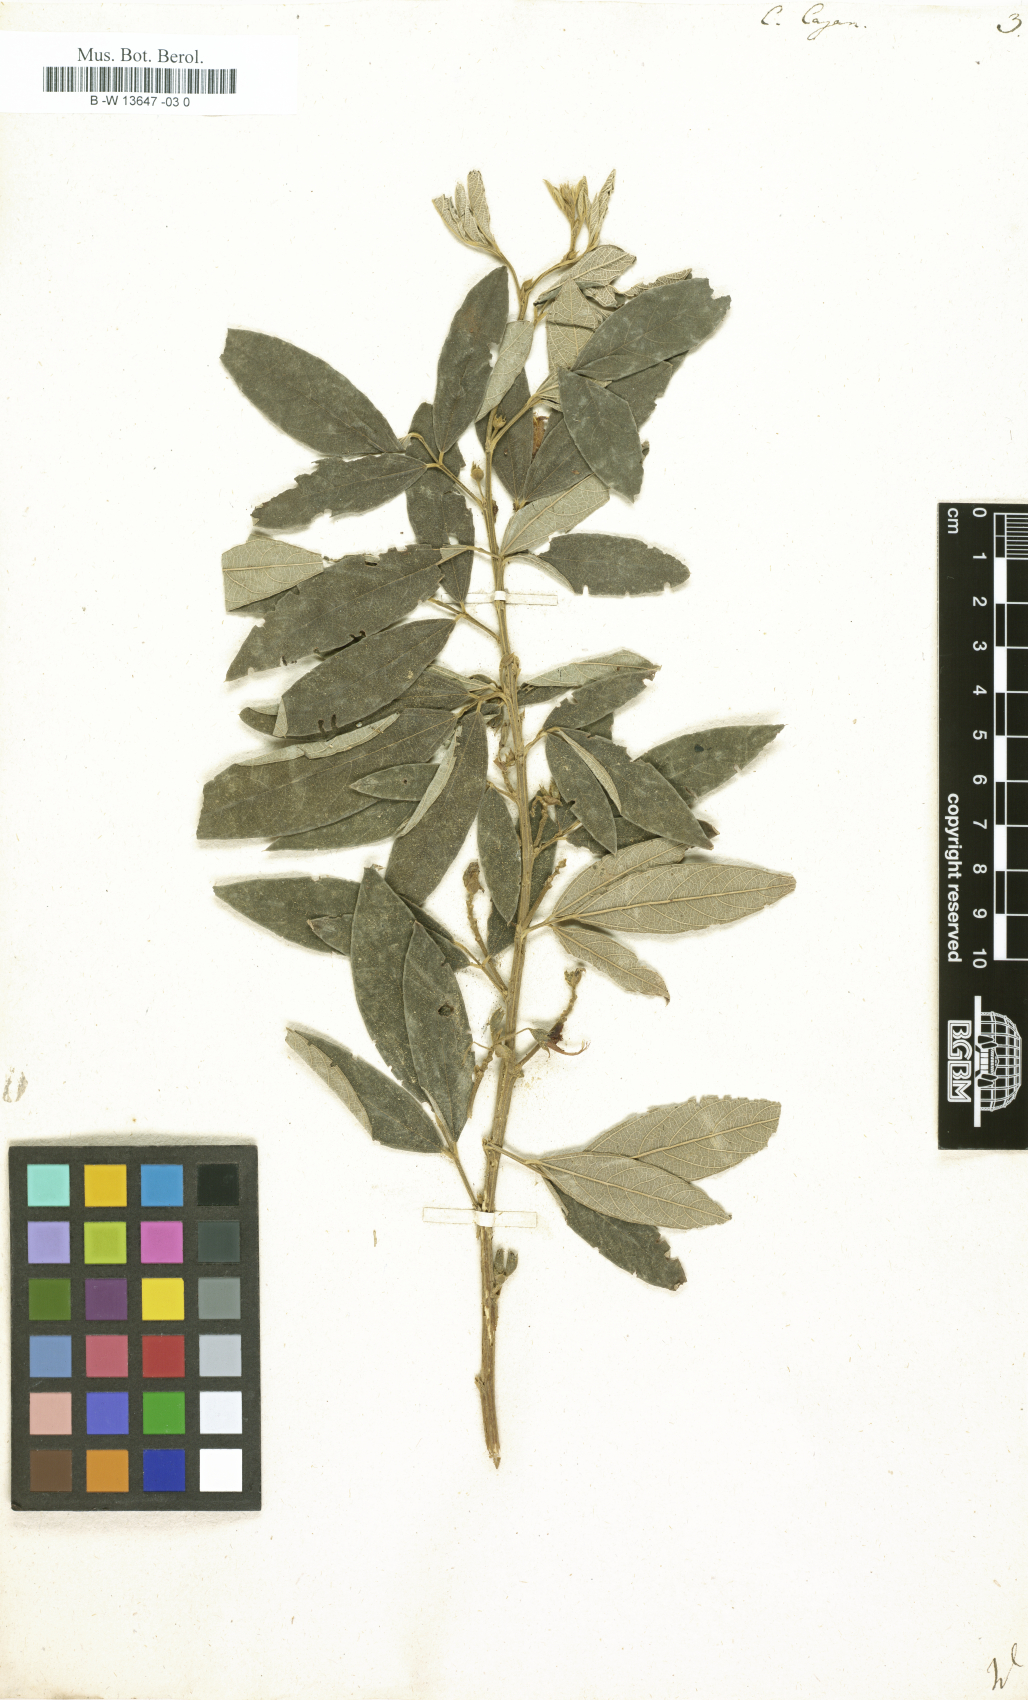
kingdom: Plantae
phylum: Tracheophyta
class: Magnoliopsida
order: Fabales
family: Fabaceae
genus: Cajanus
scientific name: Cajanus cajan
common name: Pigeonpea
